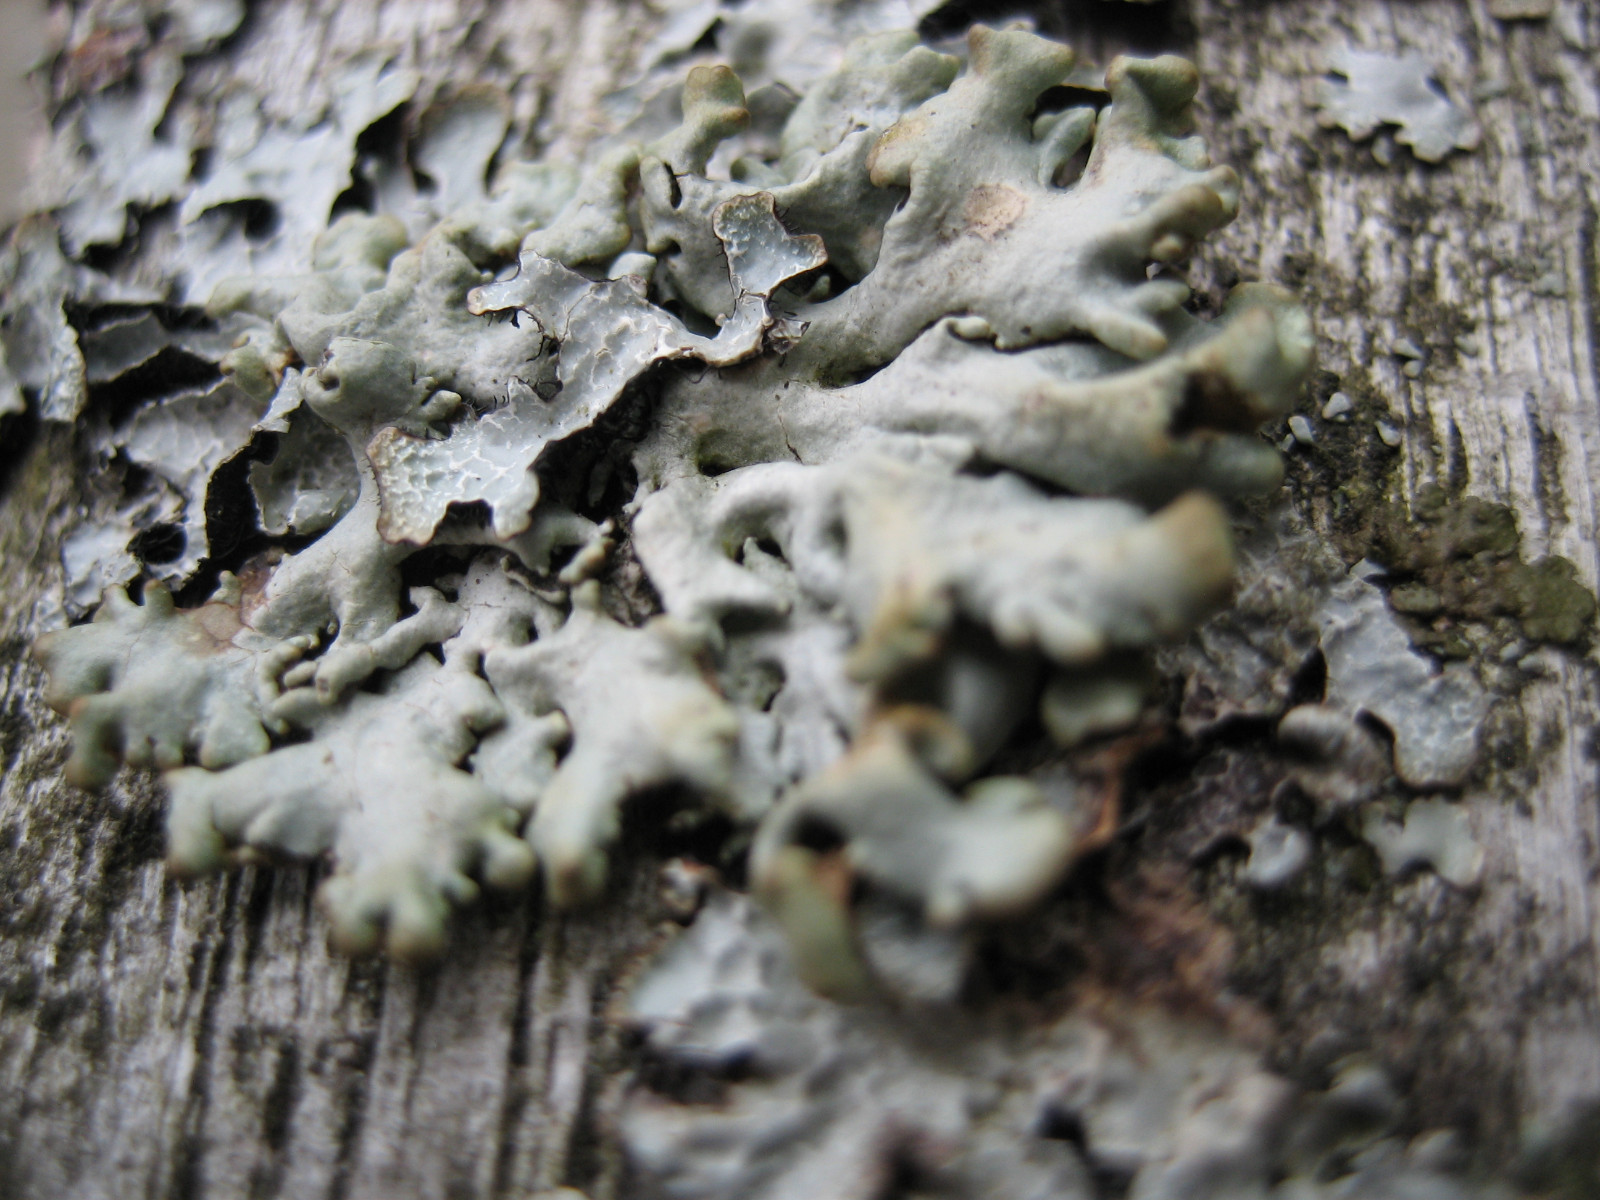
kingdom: Fungi
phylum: Ascomycota
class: Lecanoromycetes
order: Lecanorales
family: Parmeliaceae
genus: Hypogymnia
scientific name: Hypogymnia
